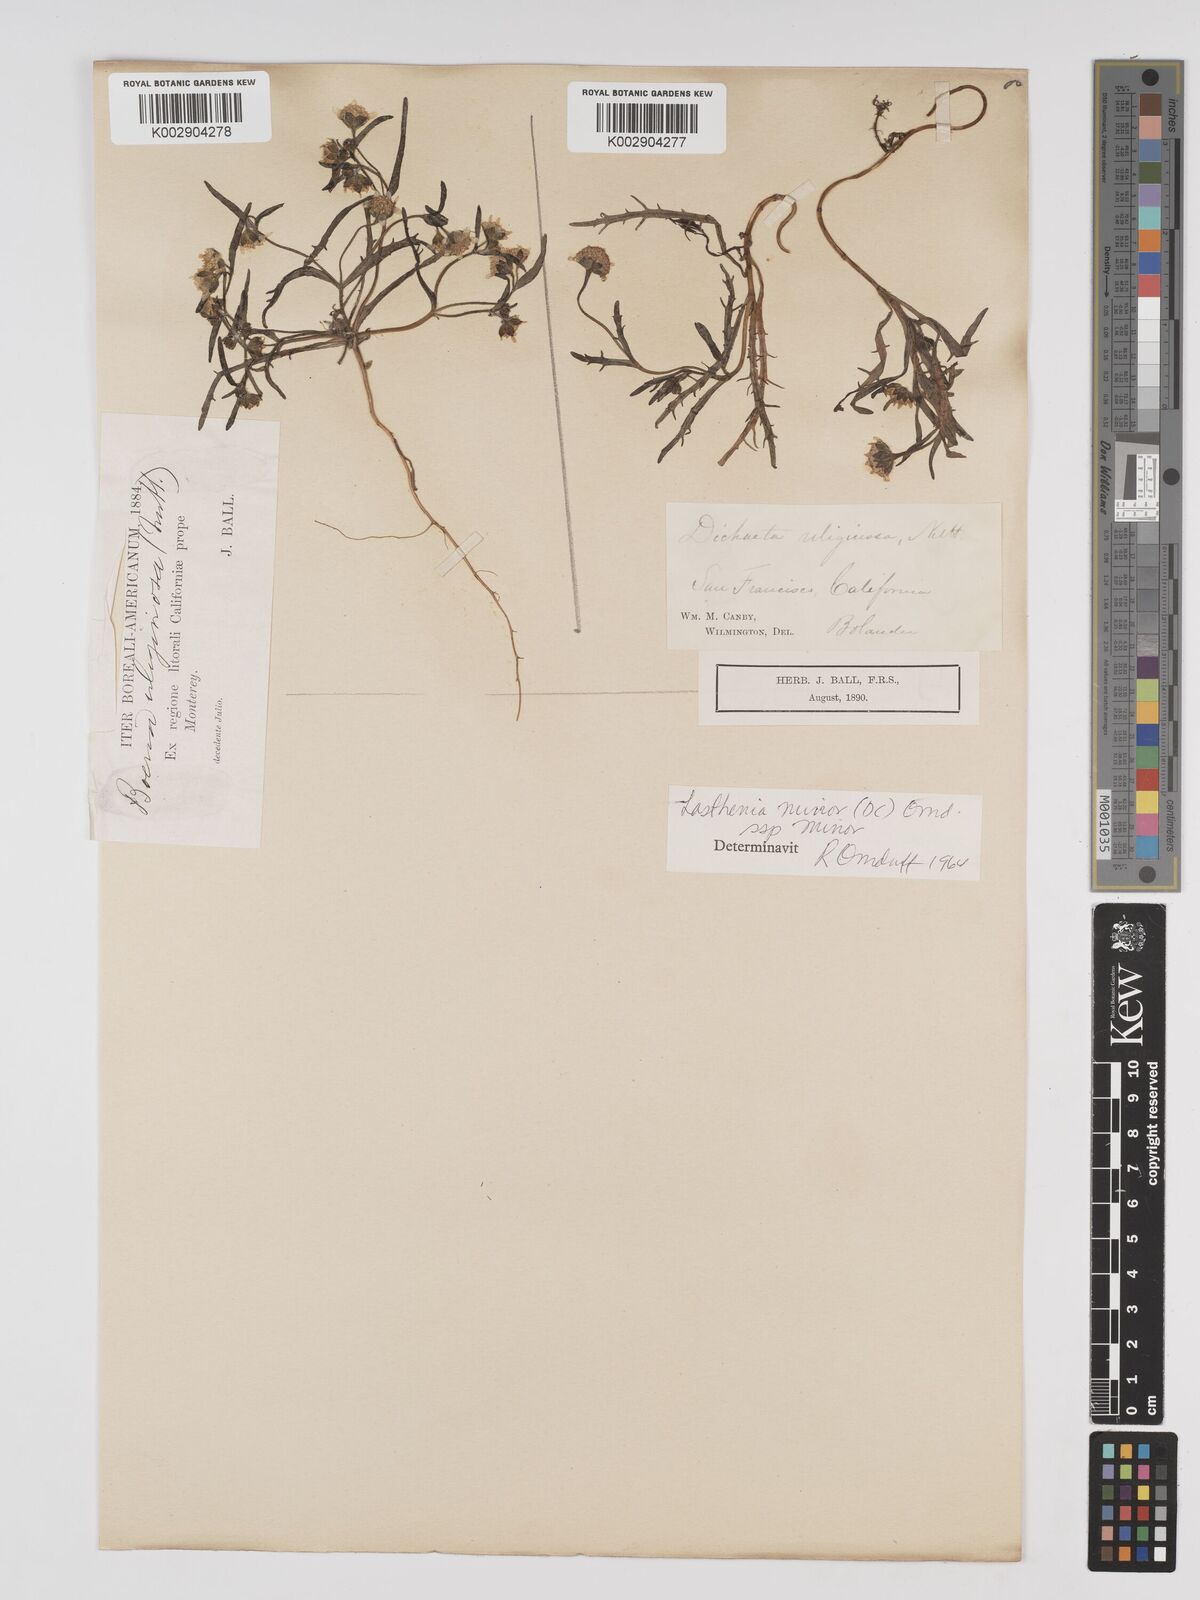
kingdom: Plantae
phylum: Tracheophyta
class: Magnoliopsida
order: Asterales
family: Asteraceae
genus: Lasthenia
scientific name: Lasthenia minor
